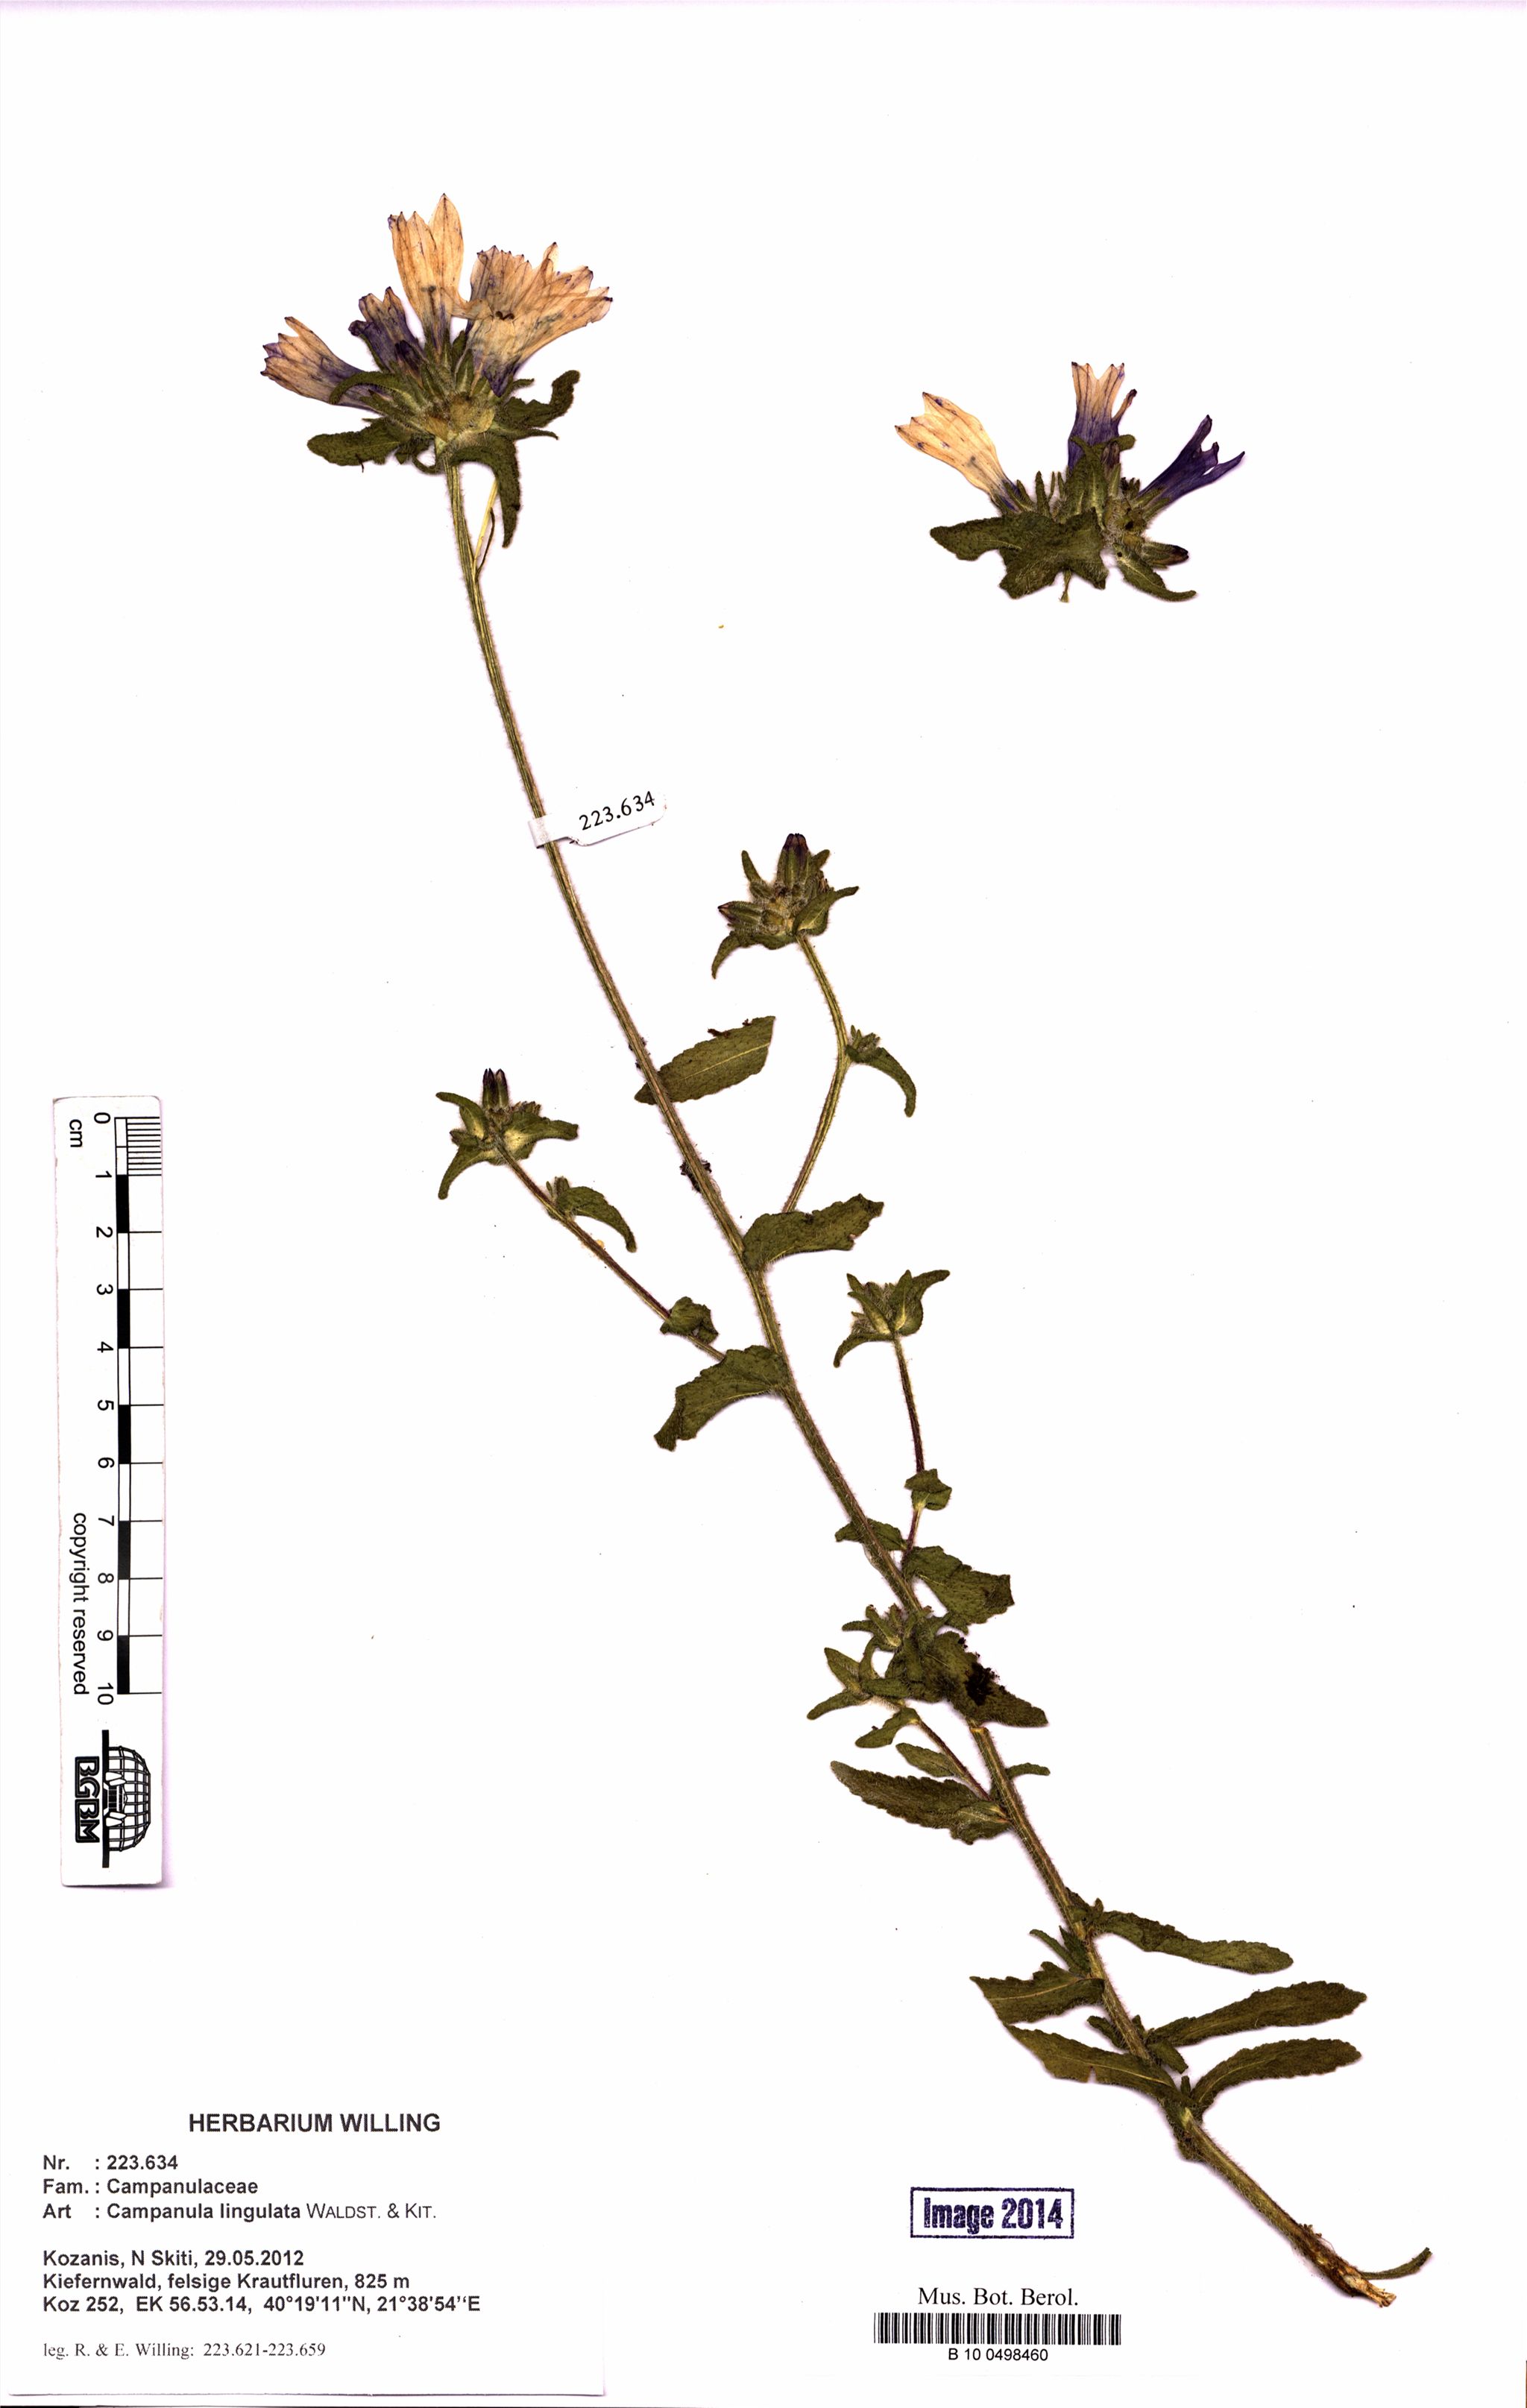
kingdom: Plantae
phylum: Tracheophyta
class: Magnoliopsida
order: Asterales
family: Campanulaceae
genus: Campanula
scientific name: Campanula lingulata
